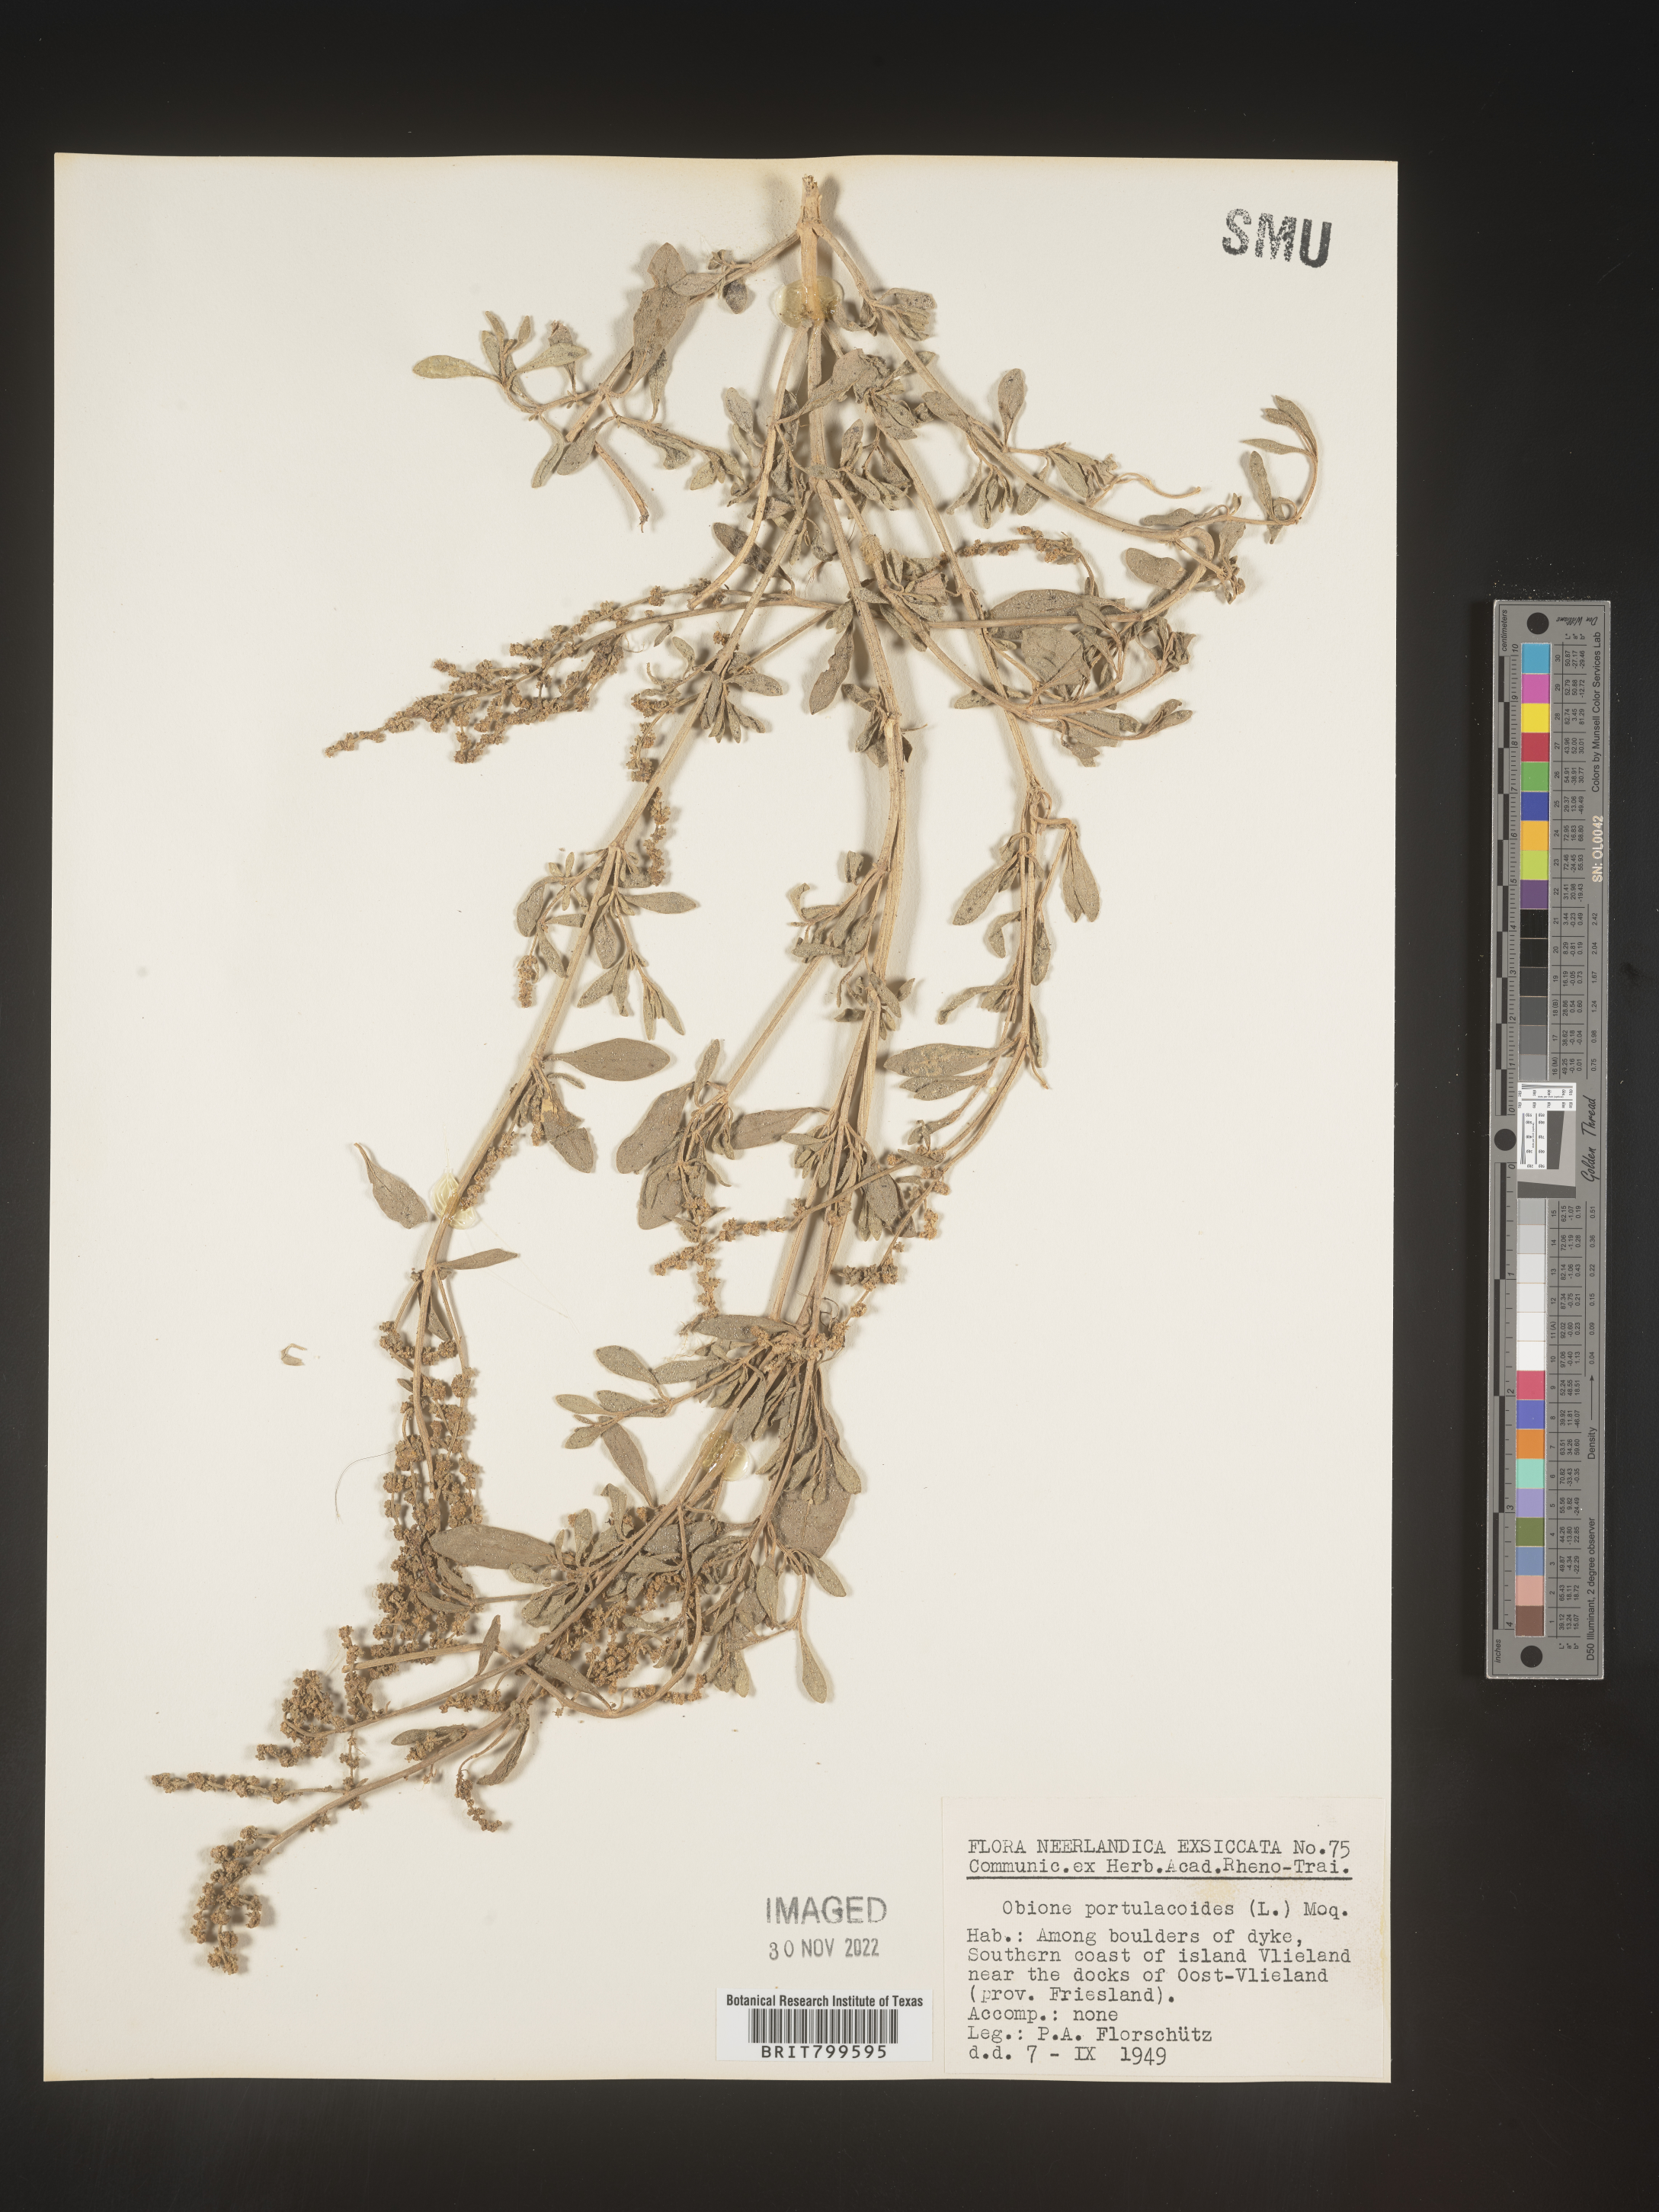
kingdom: Plantae
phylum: Tracheophyta
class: Magnoliopsida
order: Caryophyllales
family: Amaranthaceae
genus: Atriplex
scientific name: Atriplex Obione parvifolia
